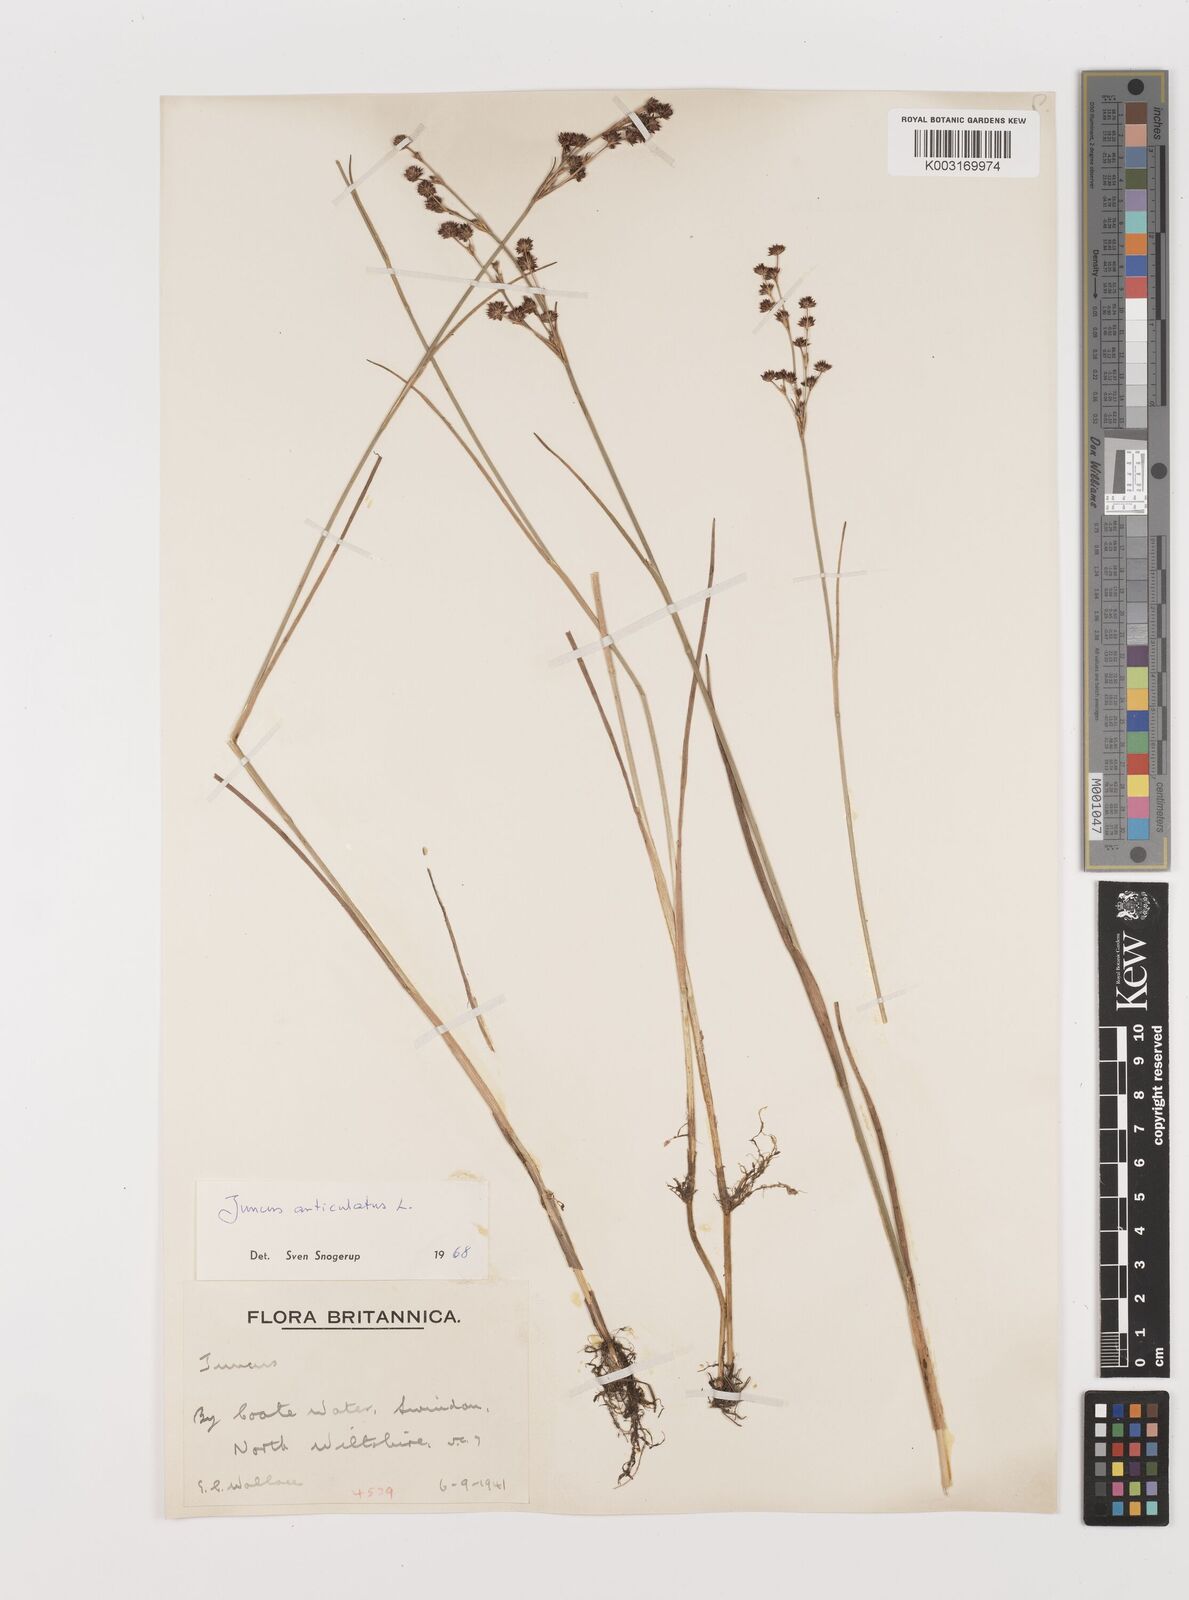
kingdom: Plantae
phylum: Tracheophyta
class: Liliopsida
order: Poales
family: Juncaceae
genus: Juncus
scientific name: Juncus articulatus
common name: Jointed rush
